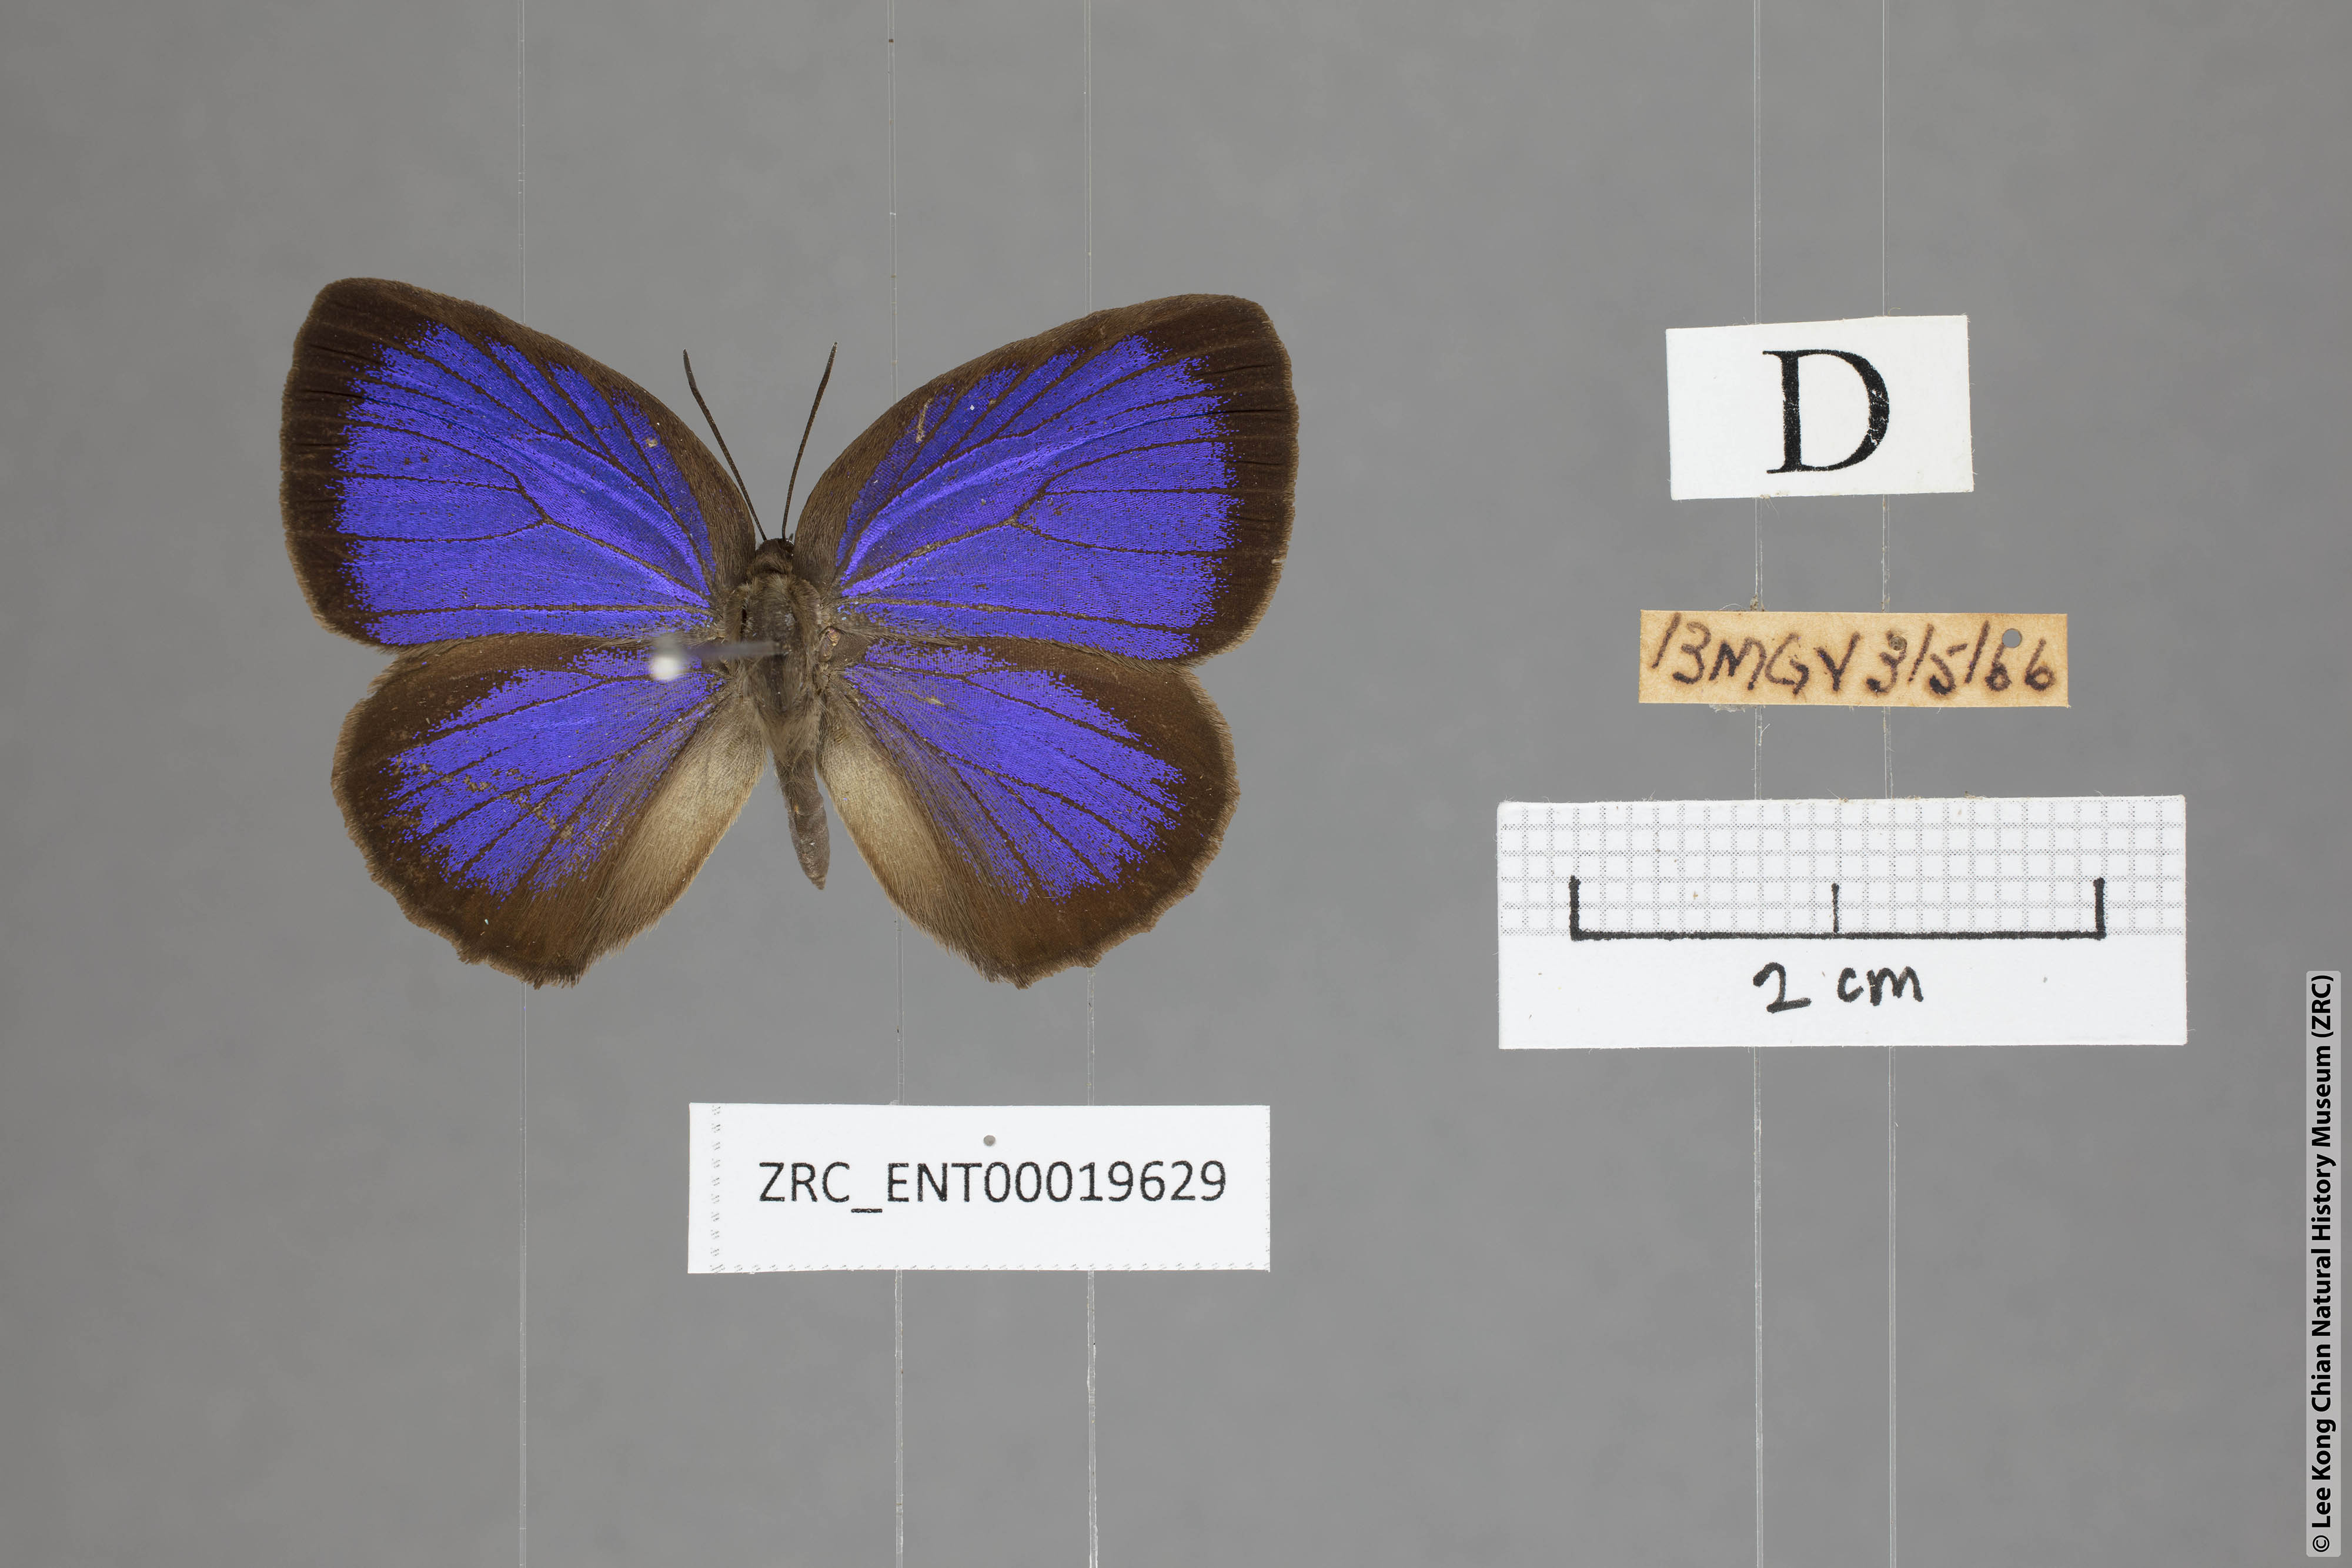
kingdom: Animalia
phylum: Arthropoda
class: Insecta
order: Lepidoptera
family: Lycaenidae
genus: Arhopala
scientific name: Arhopala major
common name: Major yellow oakblue
